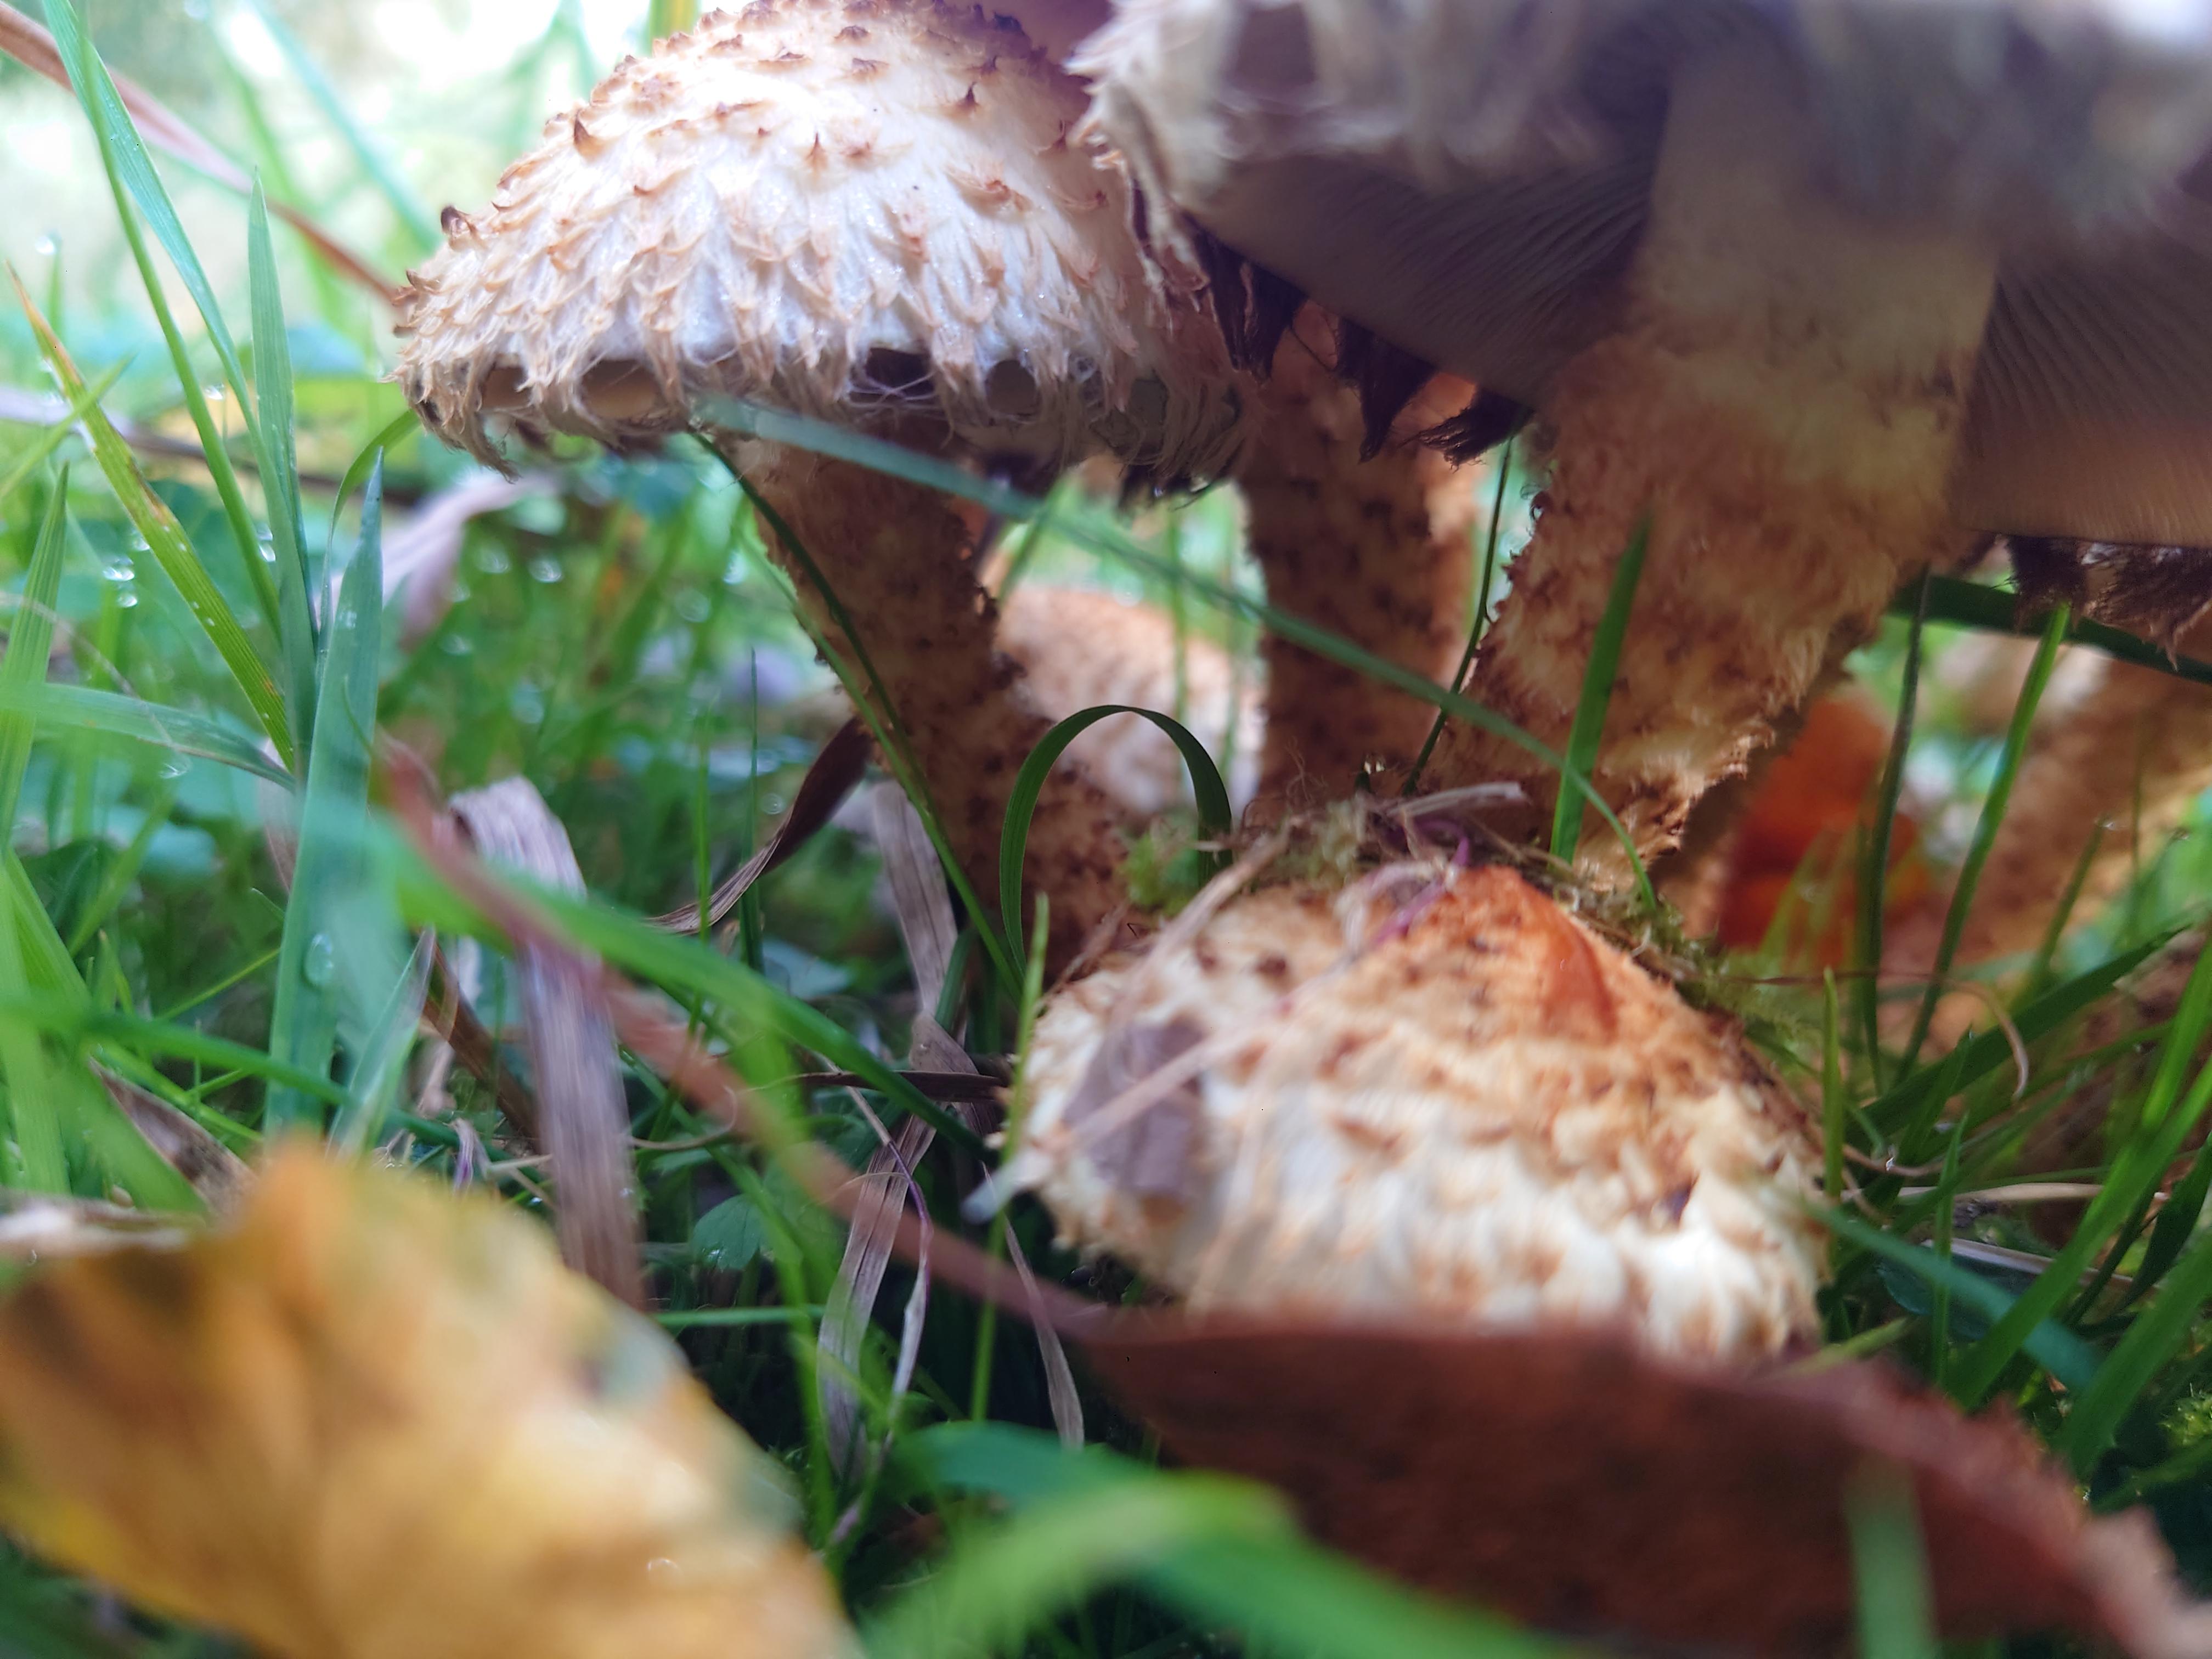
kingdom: Fungi
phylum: Basidiomycota
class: Agaricomycetes
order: Agaricales
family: Strophariaceae
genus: Pholiota
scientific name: Pholiota squarrosa
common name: krumskællet skælhat
